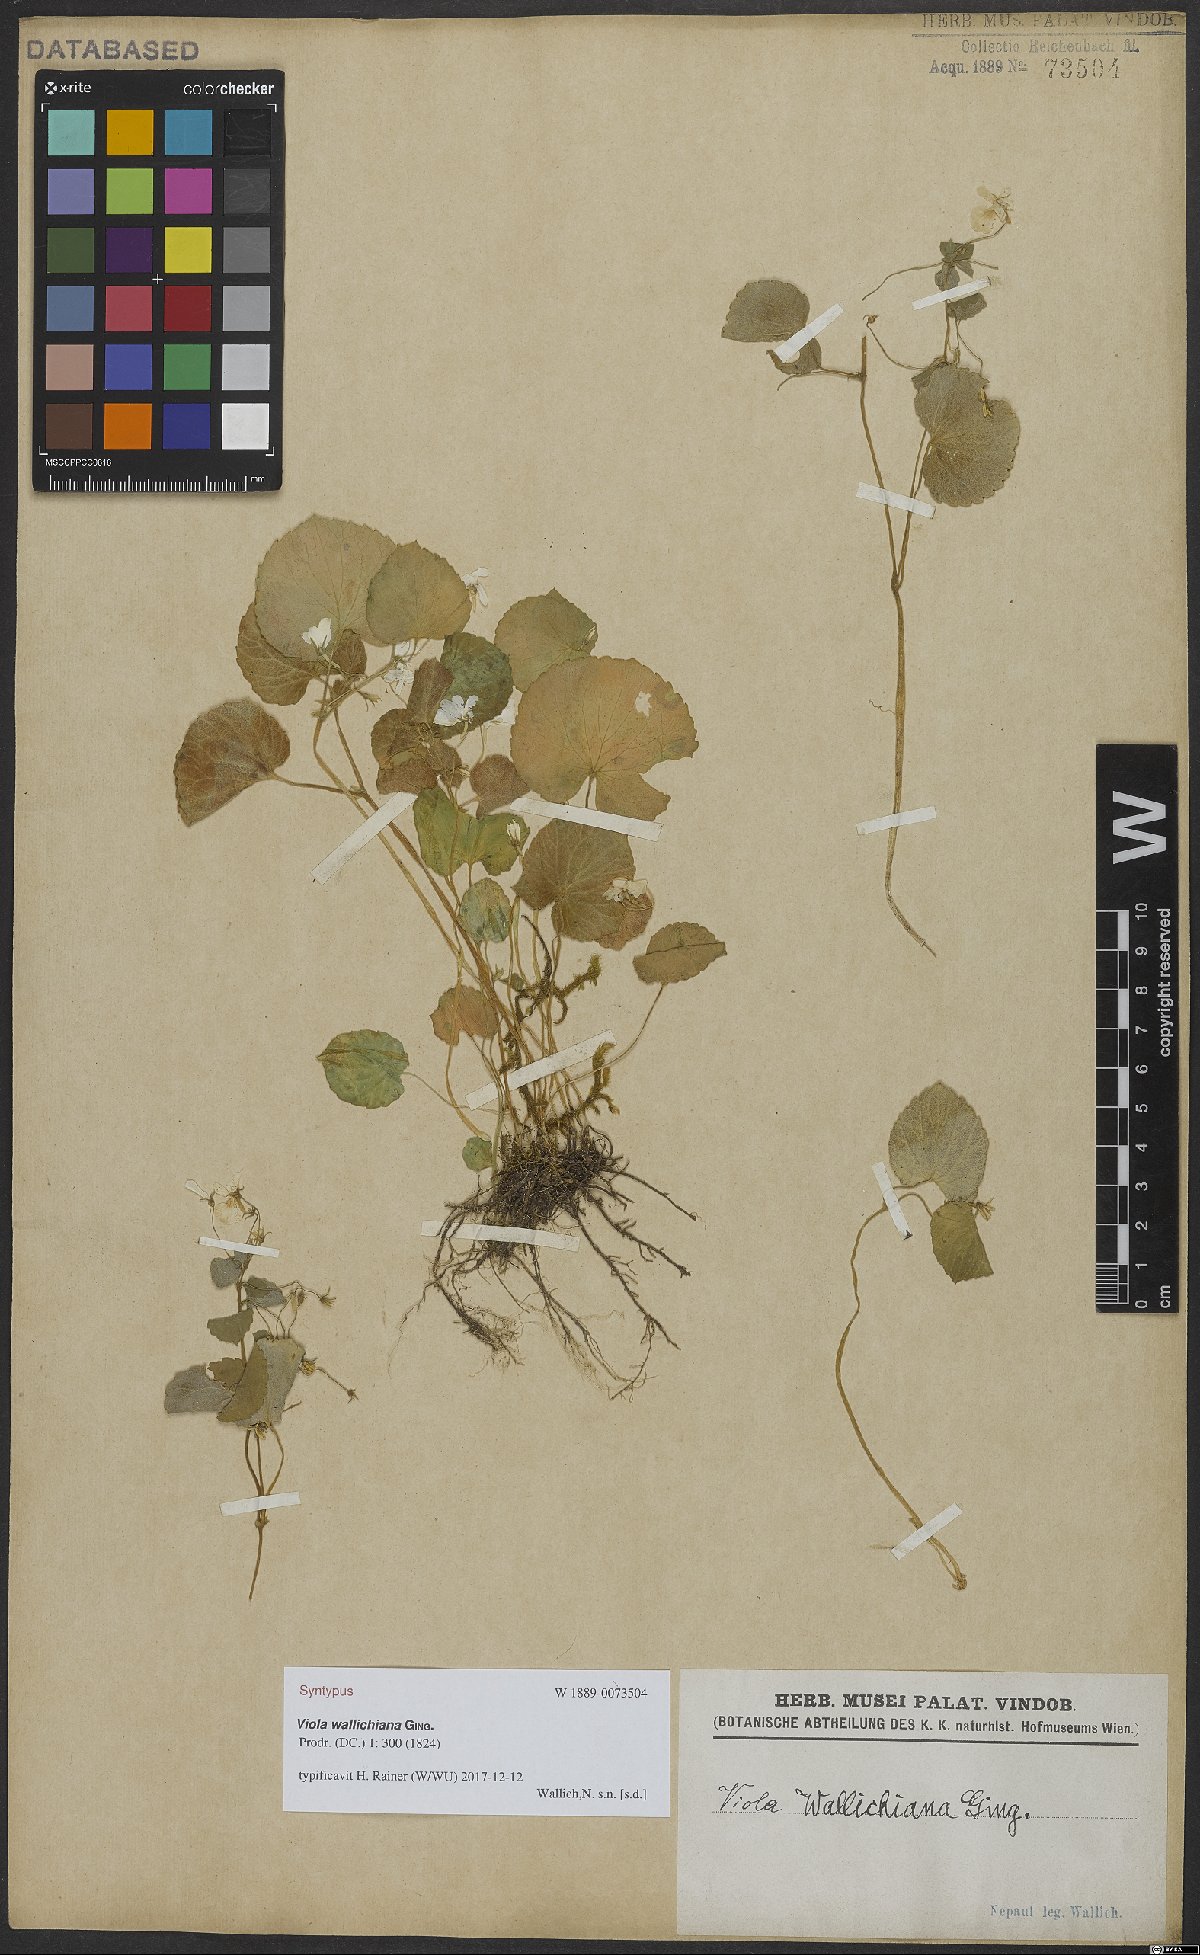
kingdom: Plantae
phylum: Tracheophyta
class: Magnoliopsida
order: Malpighiales
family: Violaceae
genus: Viola
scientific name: Viola wallichiana
